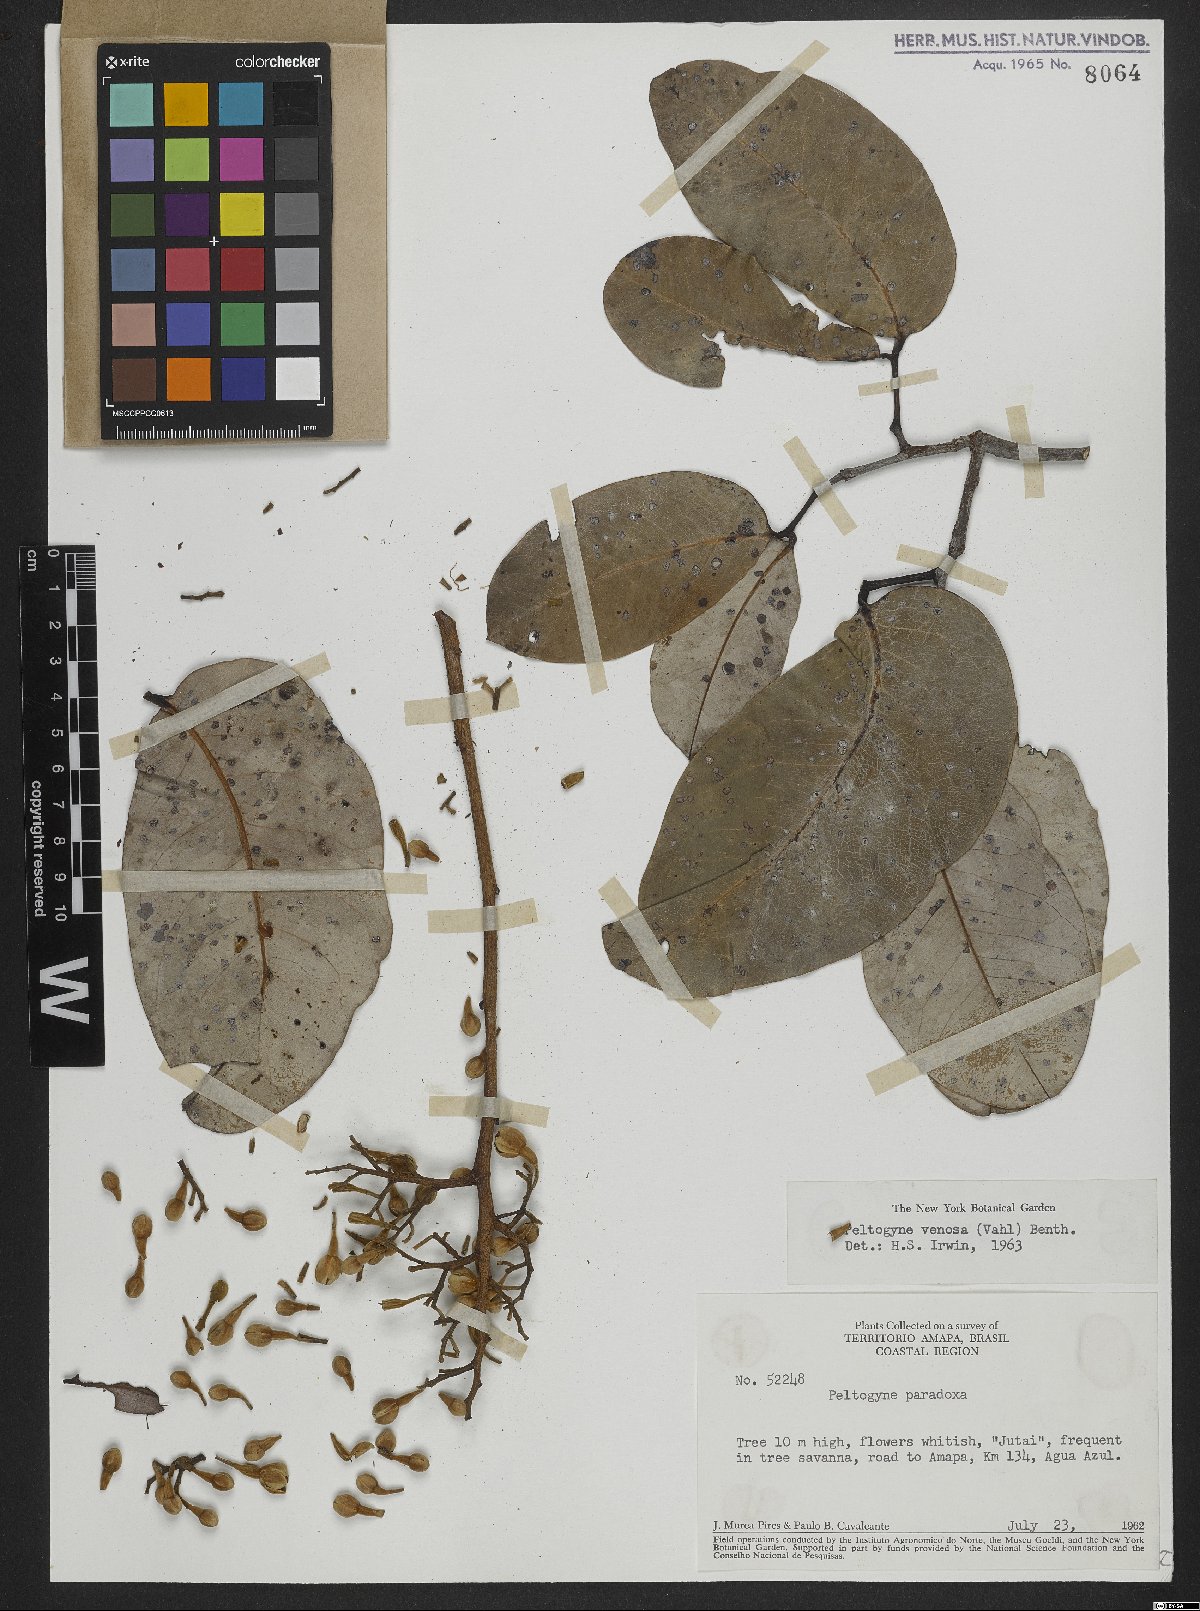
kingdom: Plantae
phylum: Tracheophyta
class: Magnoliopsida
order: Fabales
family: Fabaceae
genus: Peltogyne
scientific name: Peltogyne venosa
